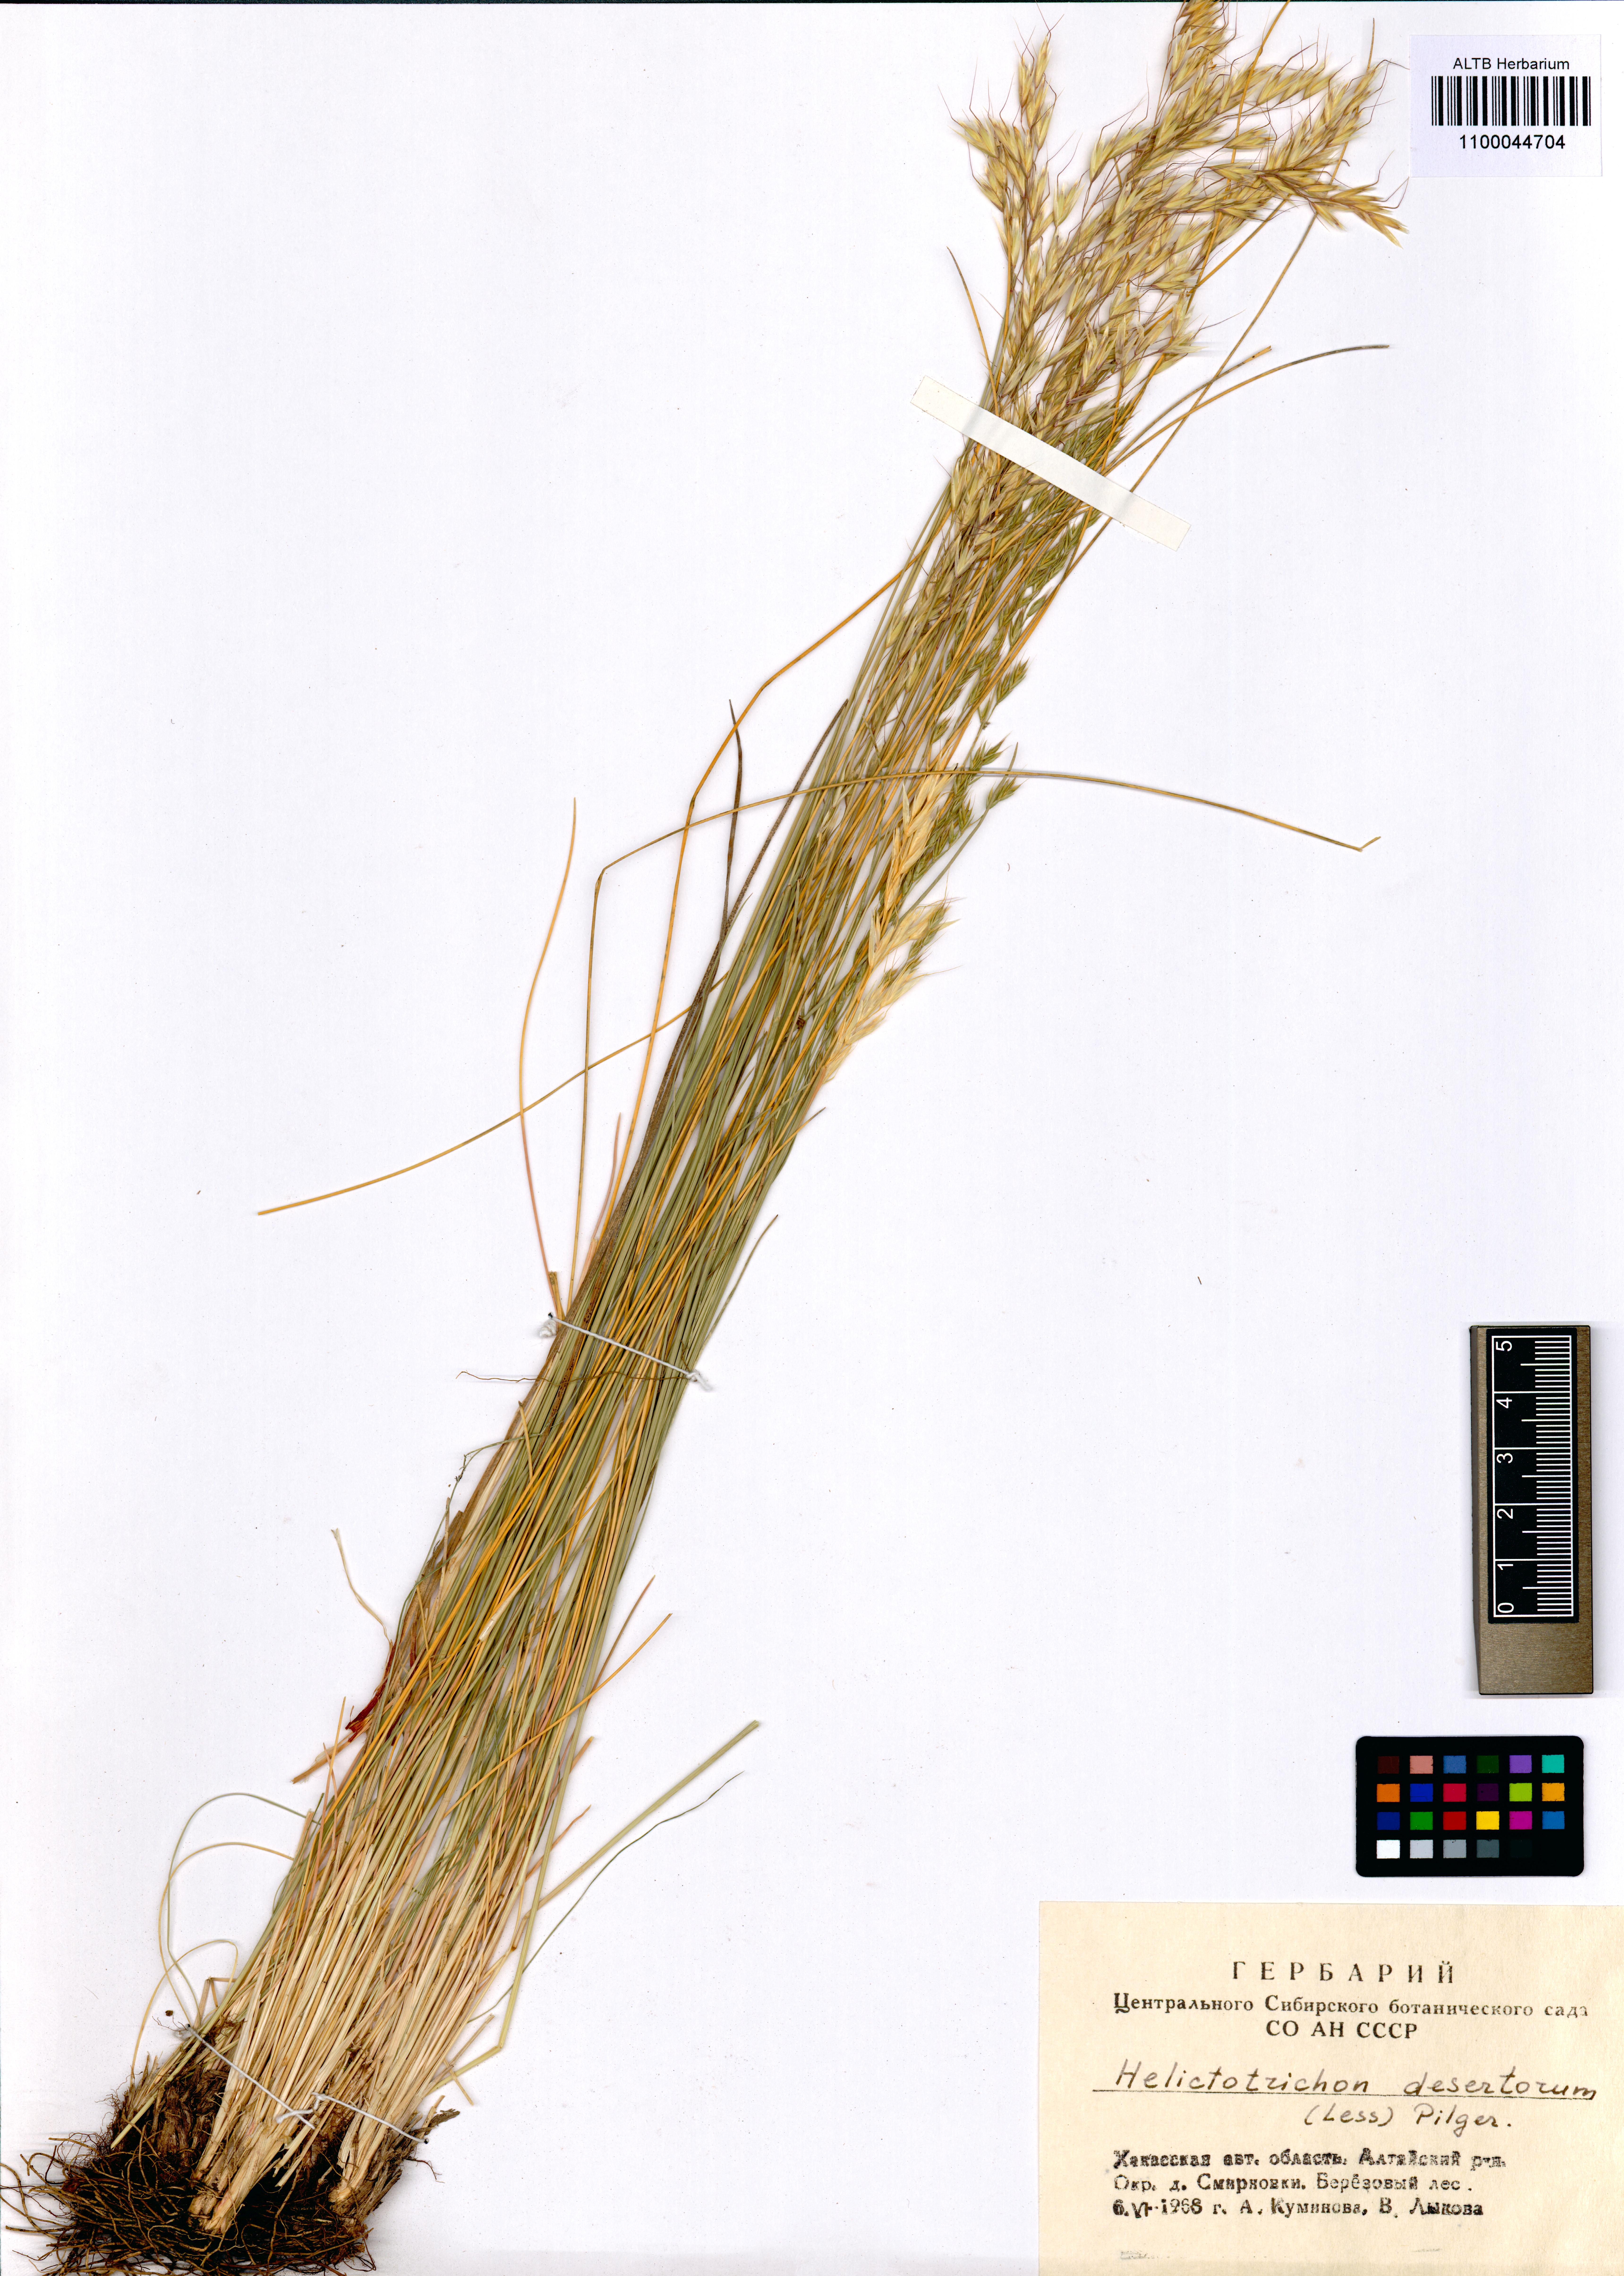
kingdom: Plantae
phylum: Tracheophyta
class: Liliopsida
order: Poales
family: Poaceae
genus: Avenula
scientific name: Avenula pubescens
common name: Downy alpine oatgrass
